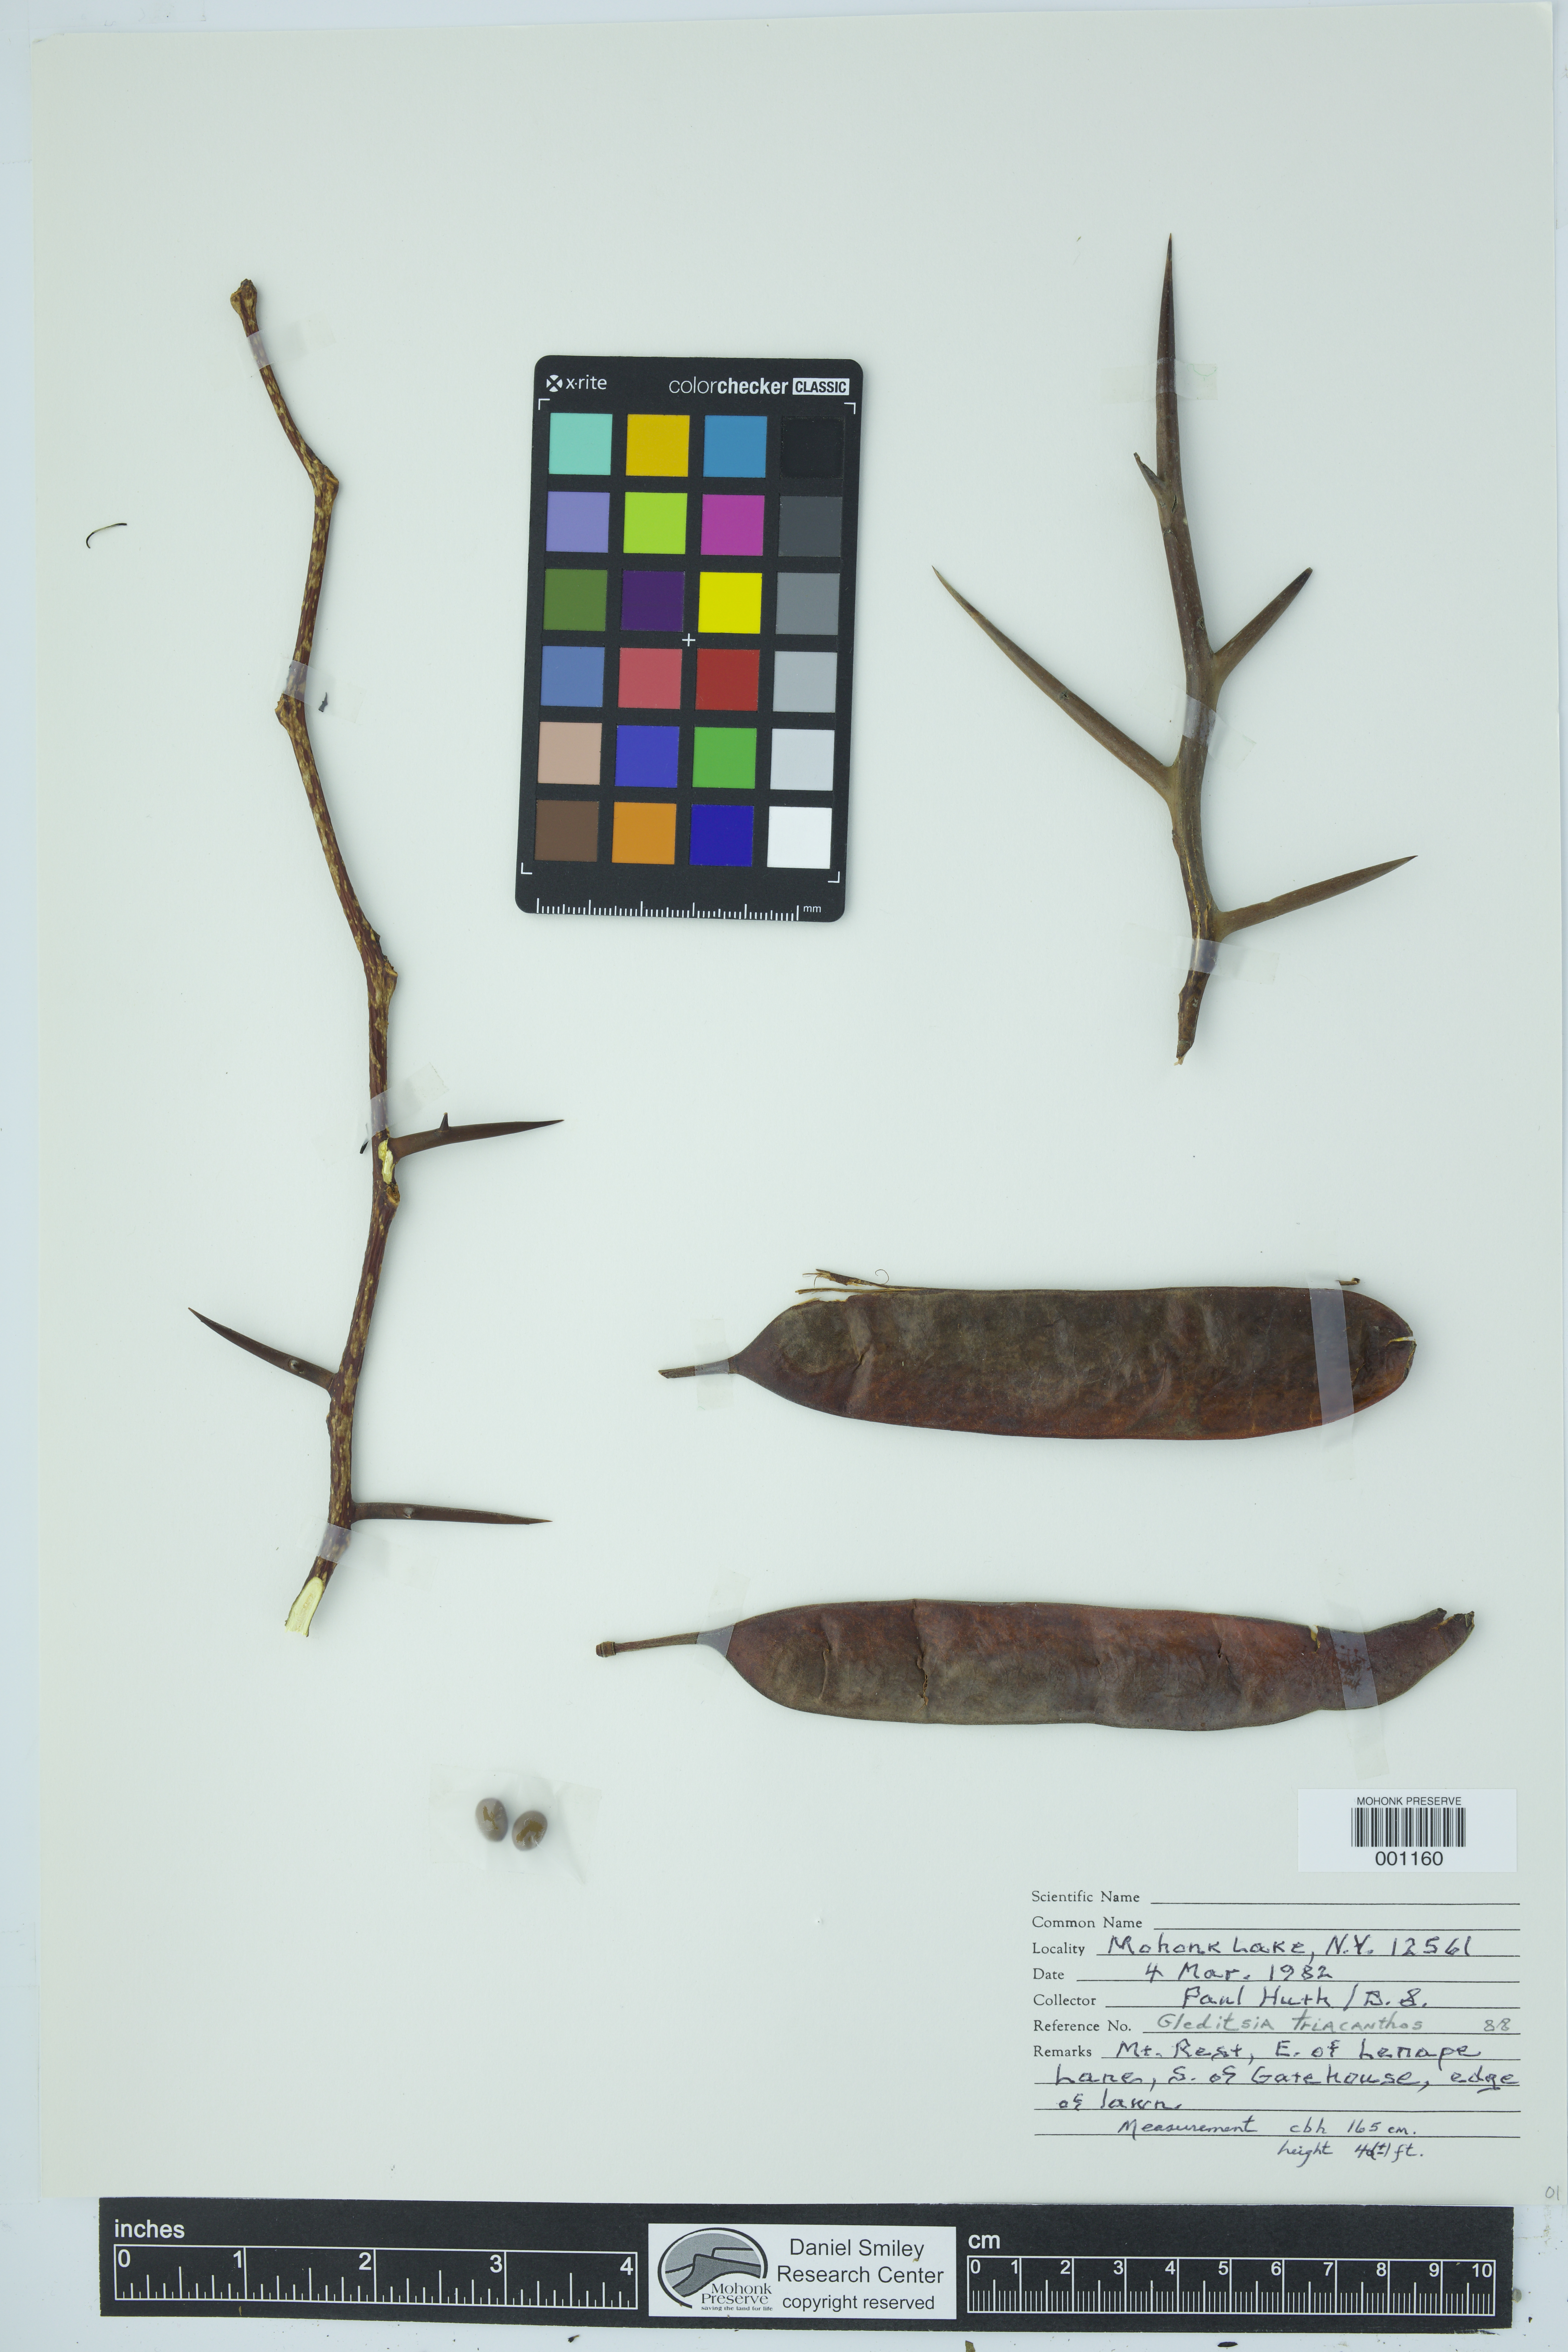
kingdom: Plantae
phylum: Tracheophyta
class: Magnoliopsida
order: Fabales
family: Fabaceae
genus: Gleditsia
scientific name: Gleditsia triacanthos
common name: Common honeylocust
